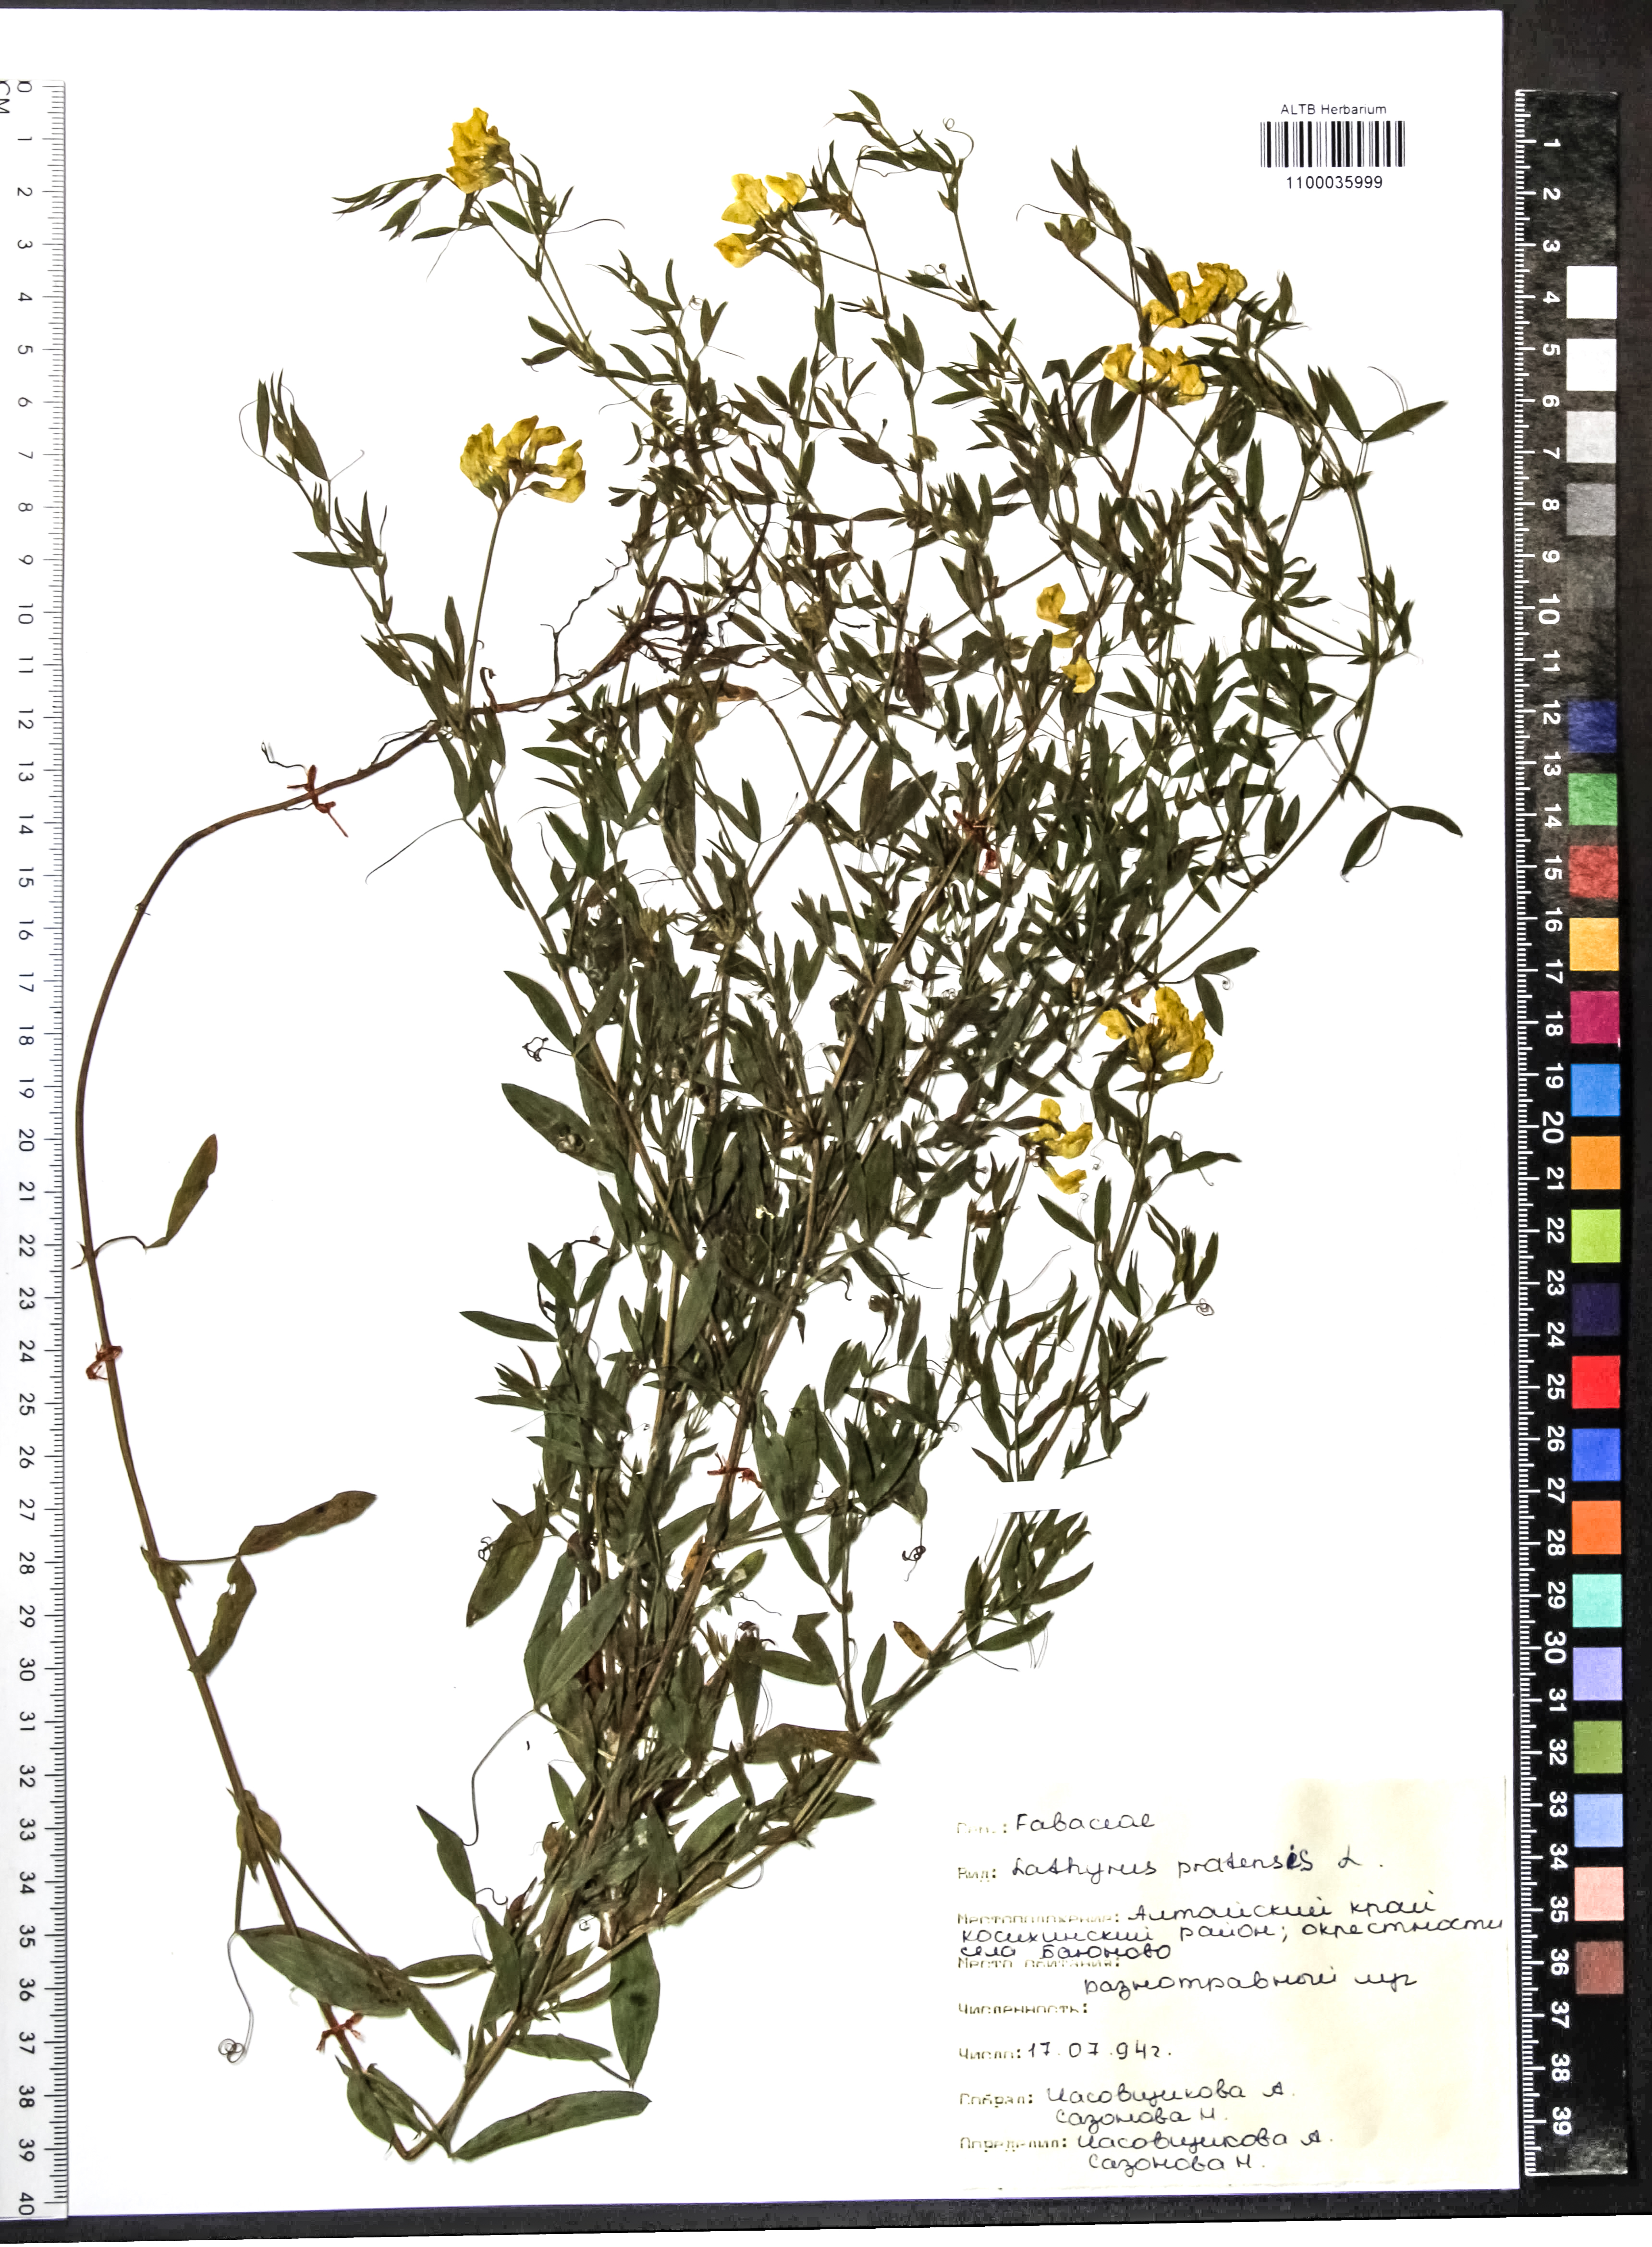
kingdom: Plantae
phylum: Tracheophyta
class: Magnoliopsida
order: Fabales
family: Fabaceae
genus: Lathyrus
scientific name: Lathyrus pratensis
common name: Meadow vetchling
